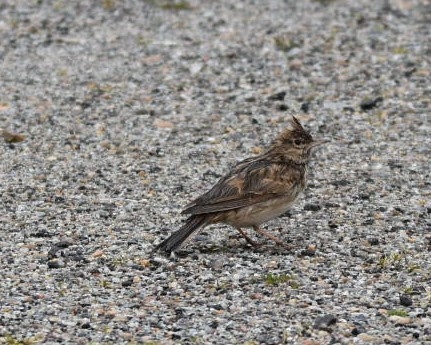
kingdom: Animalia
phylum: Chordata
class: Aves
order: Passeriformes
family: Alaudidae
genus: Galerida
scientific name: Galerida cristata
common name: Toplærke
